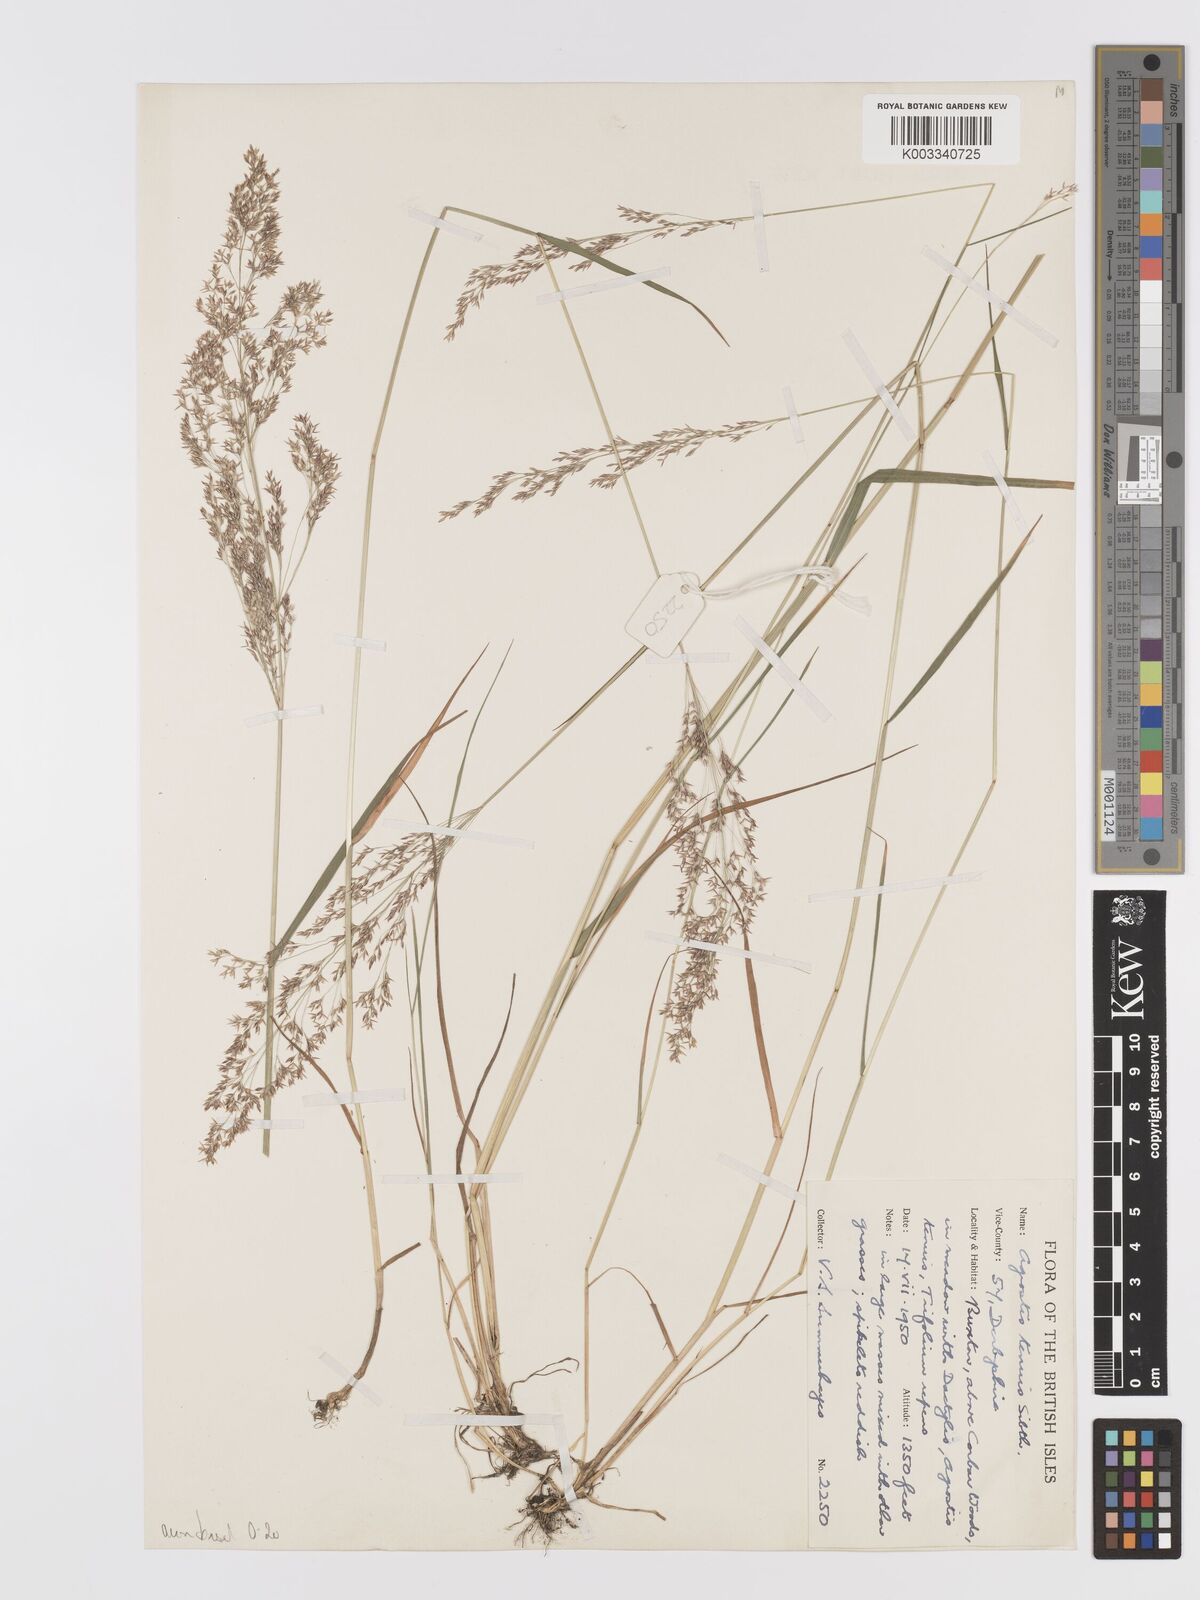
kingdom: Plantae
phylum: Tracheophyta
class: Liliopsida
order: Poales
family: Poaceae
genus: Agrostis
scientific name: Agrostis capillaris
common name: Colonial bentgrass
